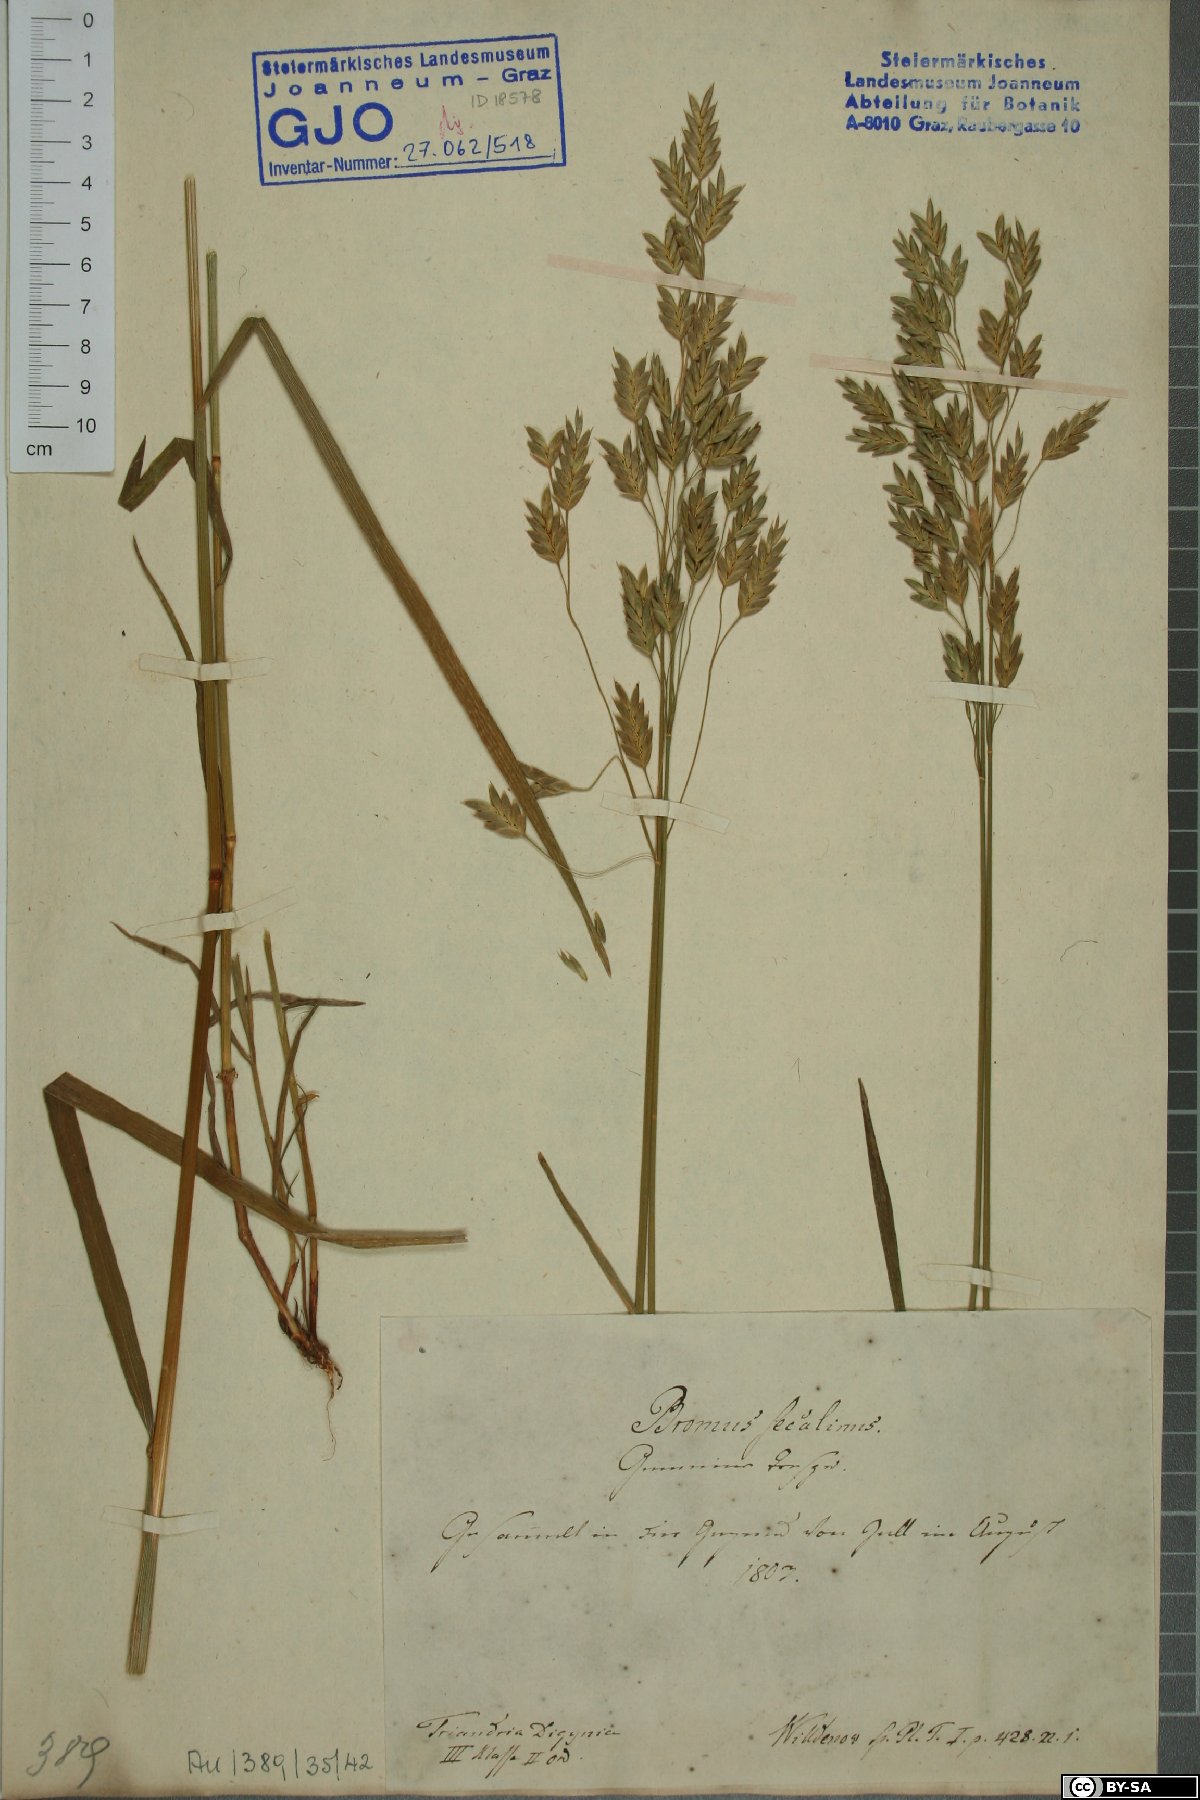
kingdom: Plantae
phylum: Tracheophyta
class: Liliopsida
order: Poales
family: Poaceae
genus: Bromus
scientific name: Bromus secalinus
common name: Rye brome
